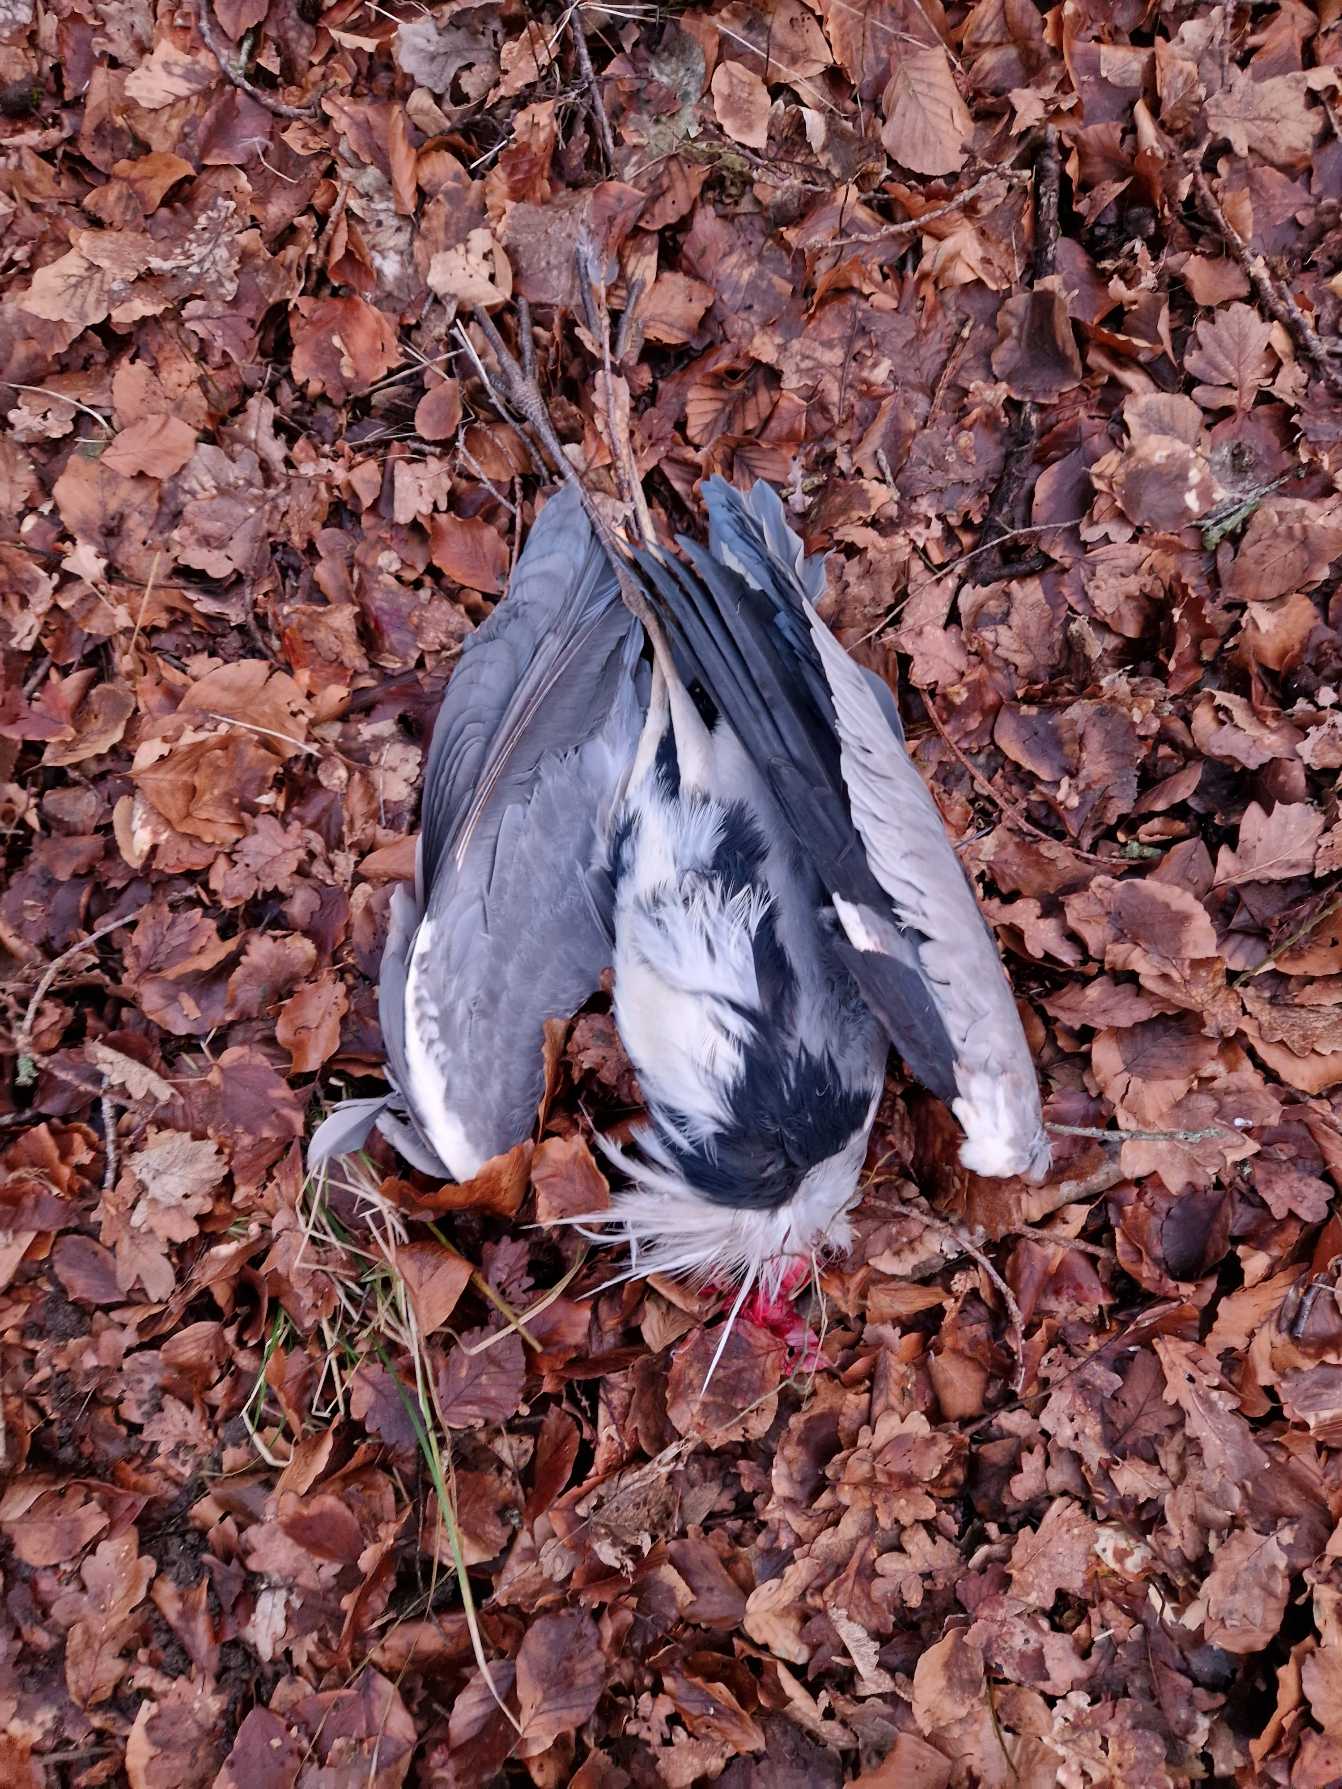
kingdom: Animalia
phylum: Chordata
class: Aves
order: Pelecaniformes
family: Ardeidae
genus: Ardea
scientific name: Ardea cinerea
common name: Fiskehejre
